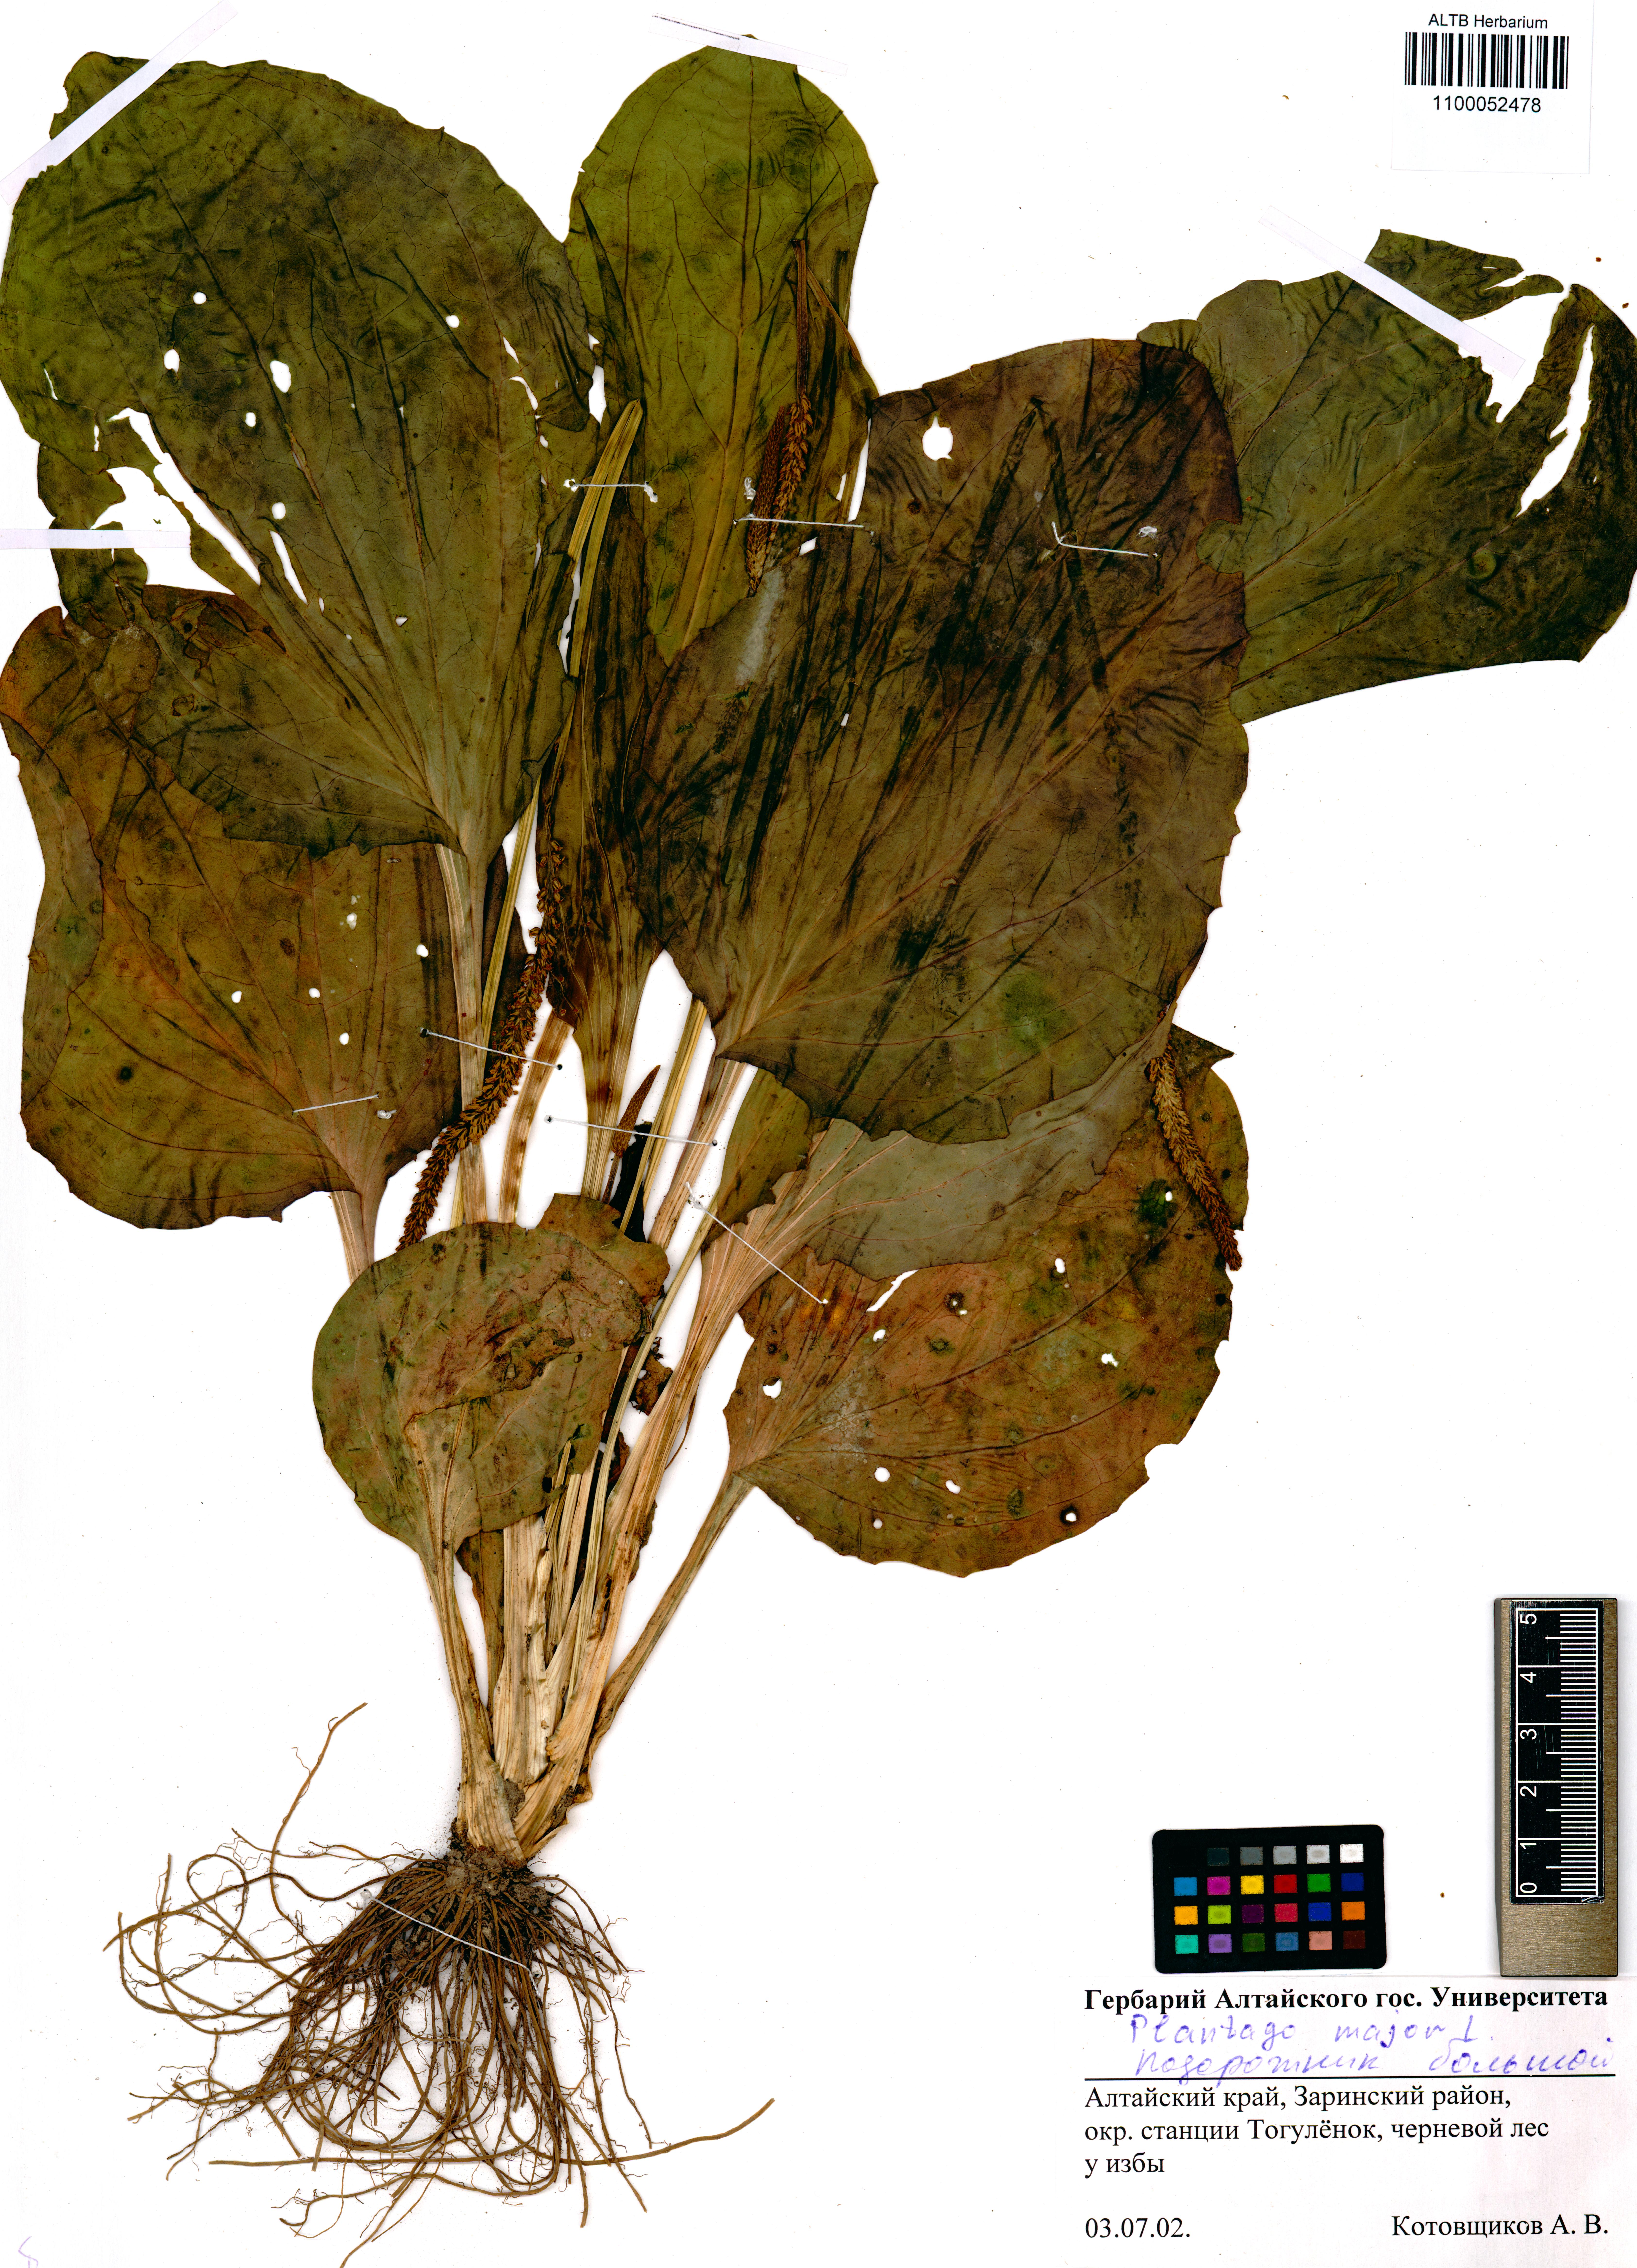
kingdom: Plantae
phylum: Tracheophyta
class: Magnoliopsida
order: Lamiales
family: Plantaginaceae
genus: Plantago
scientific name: Plantago major
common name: Common plantain
